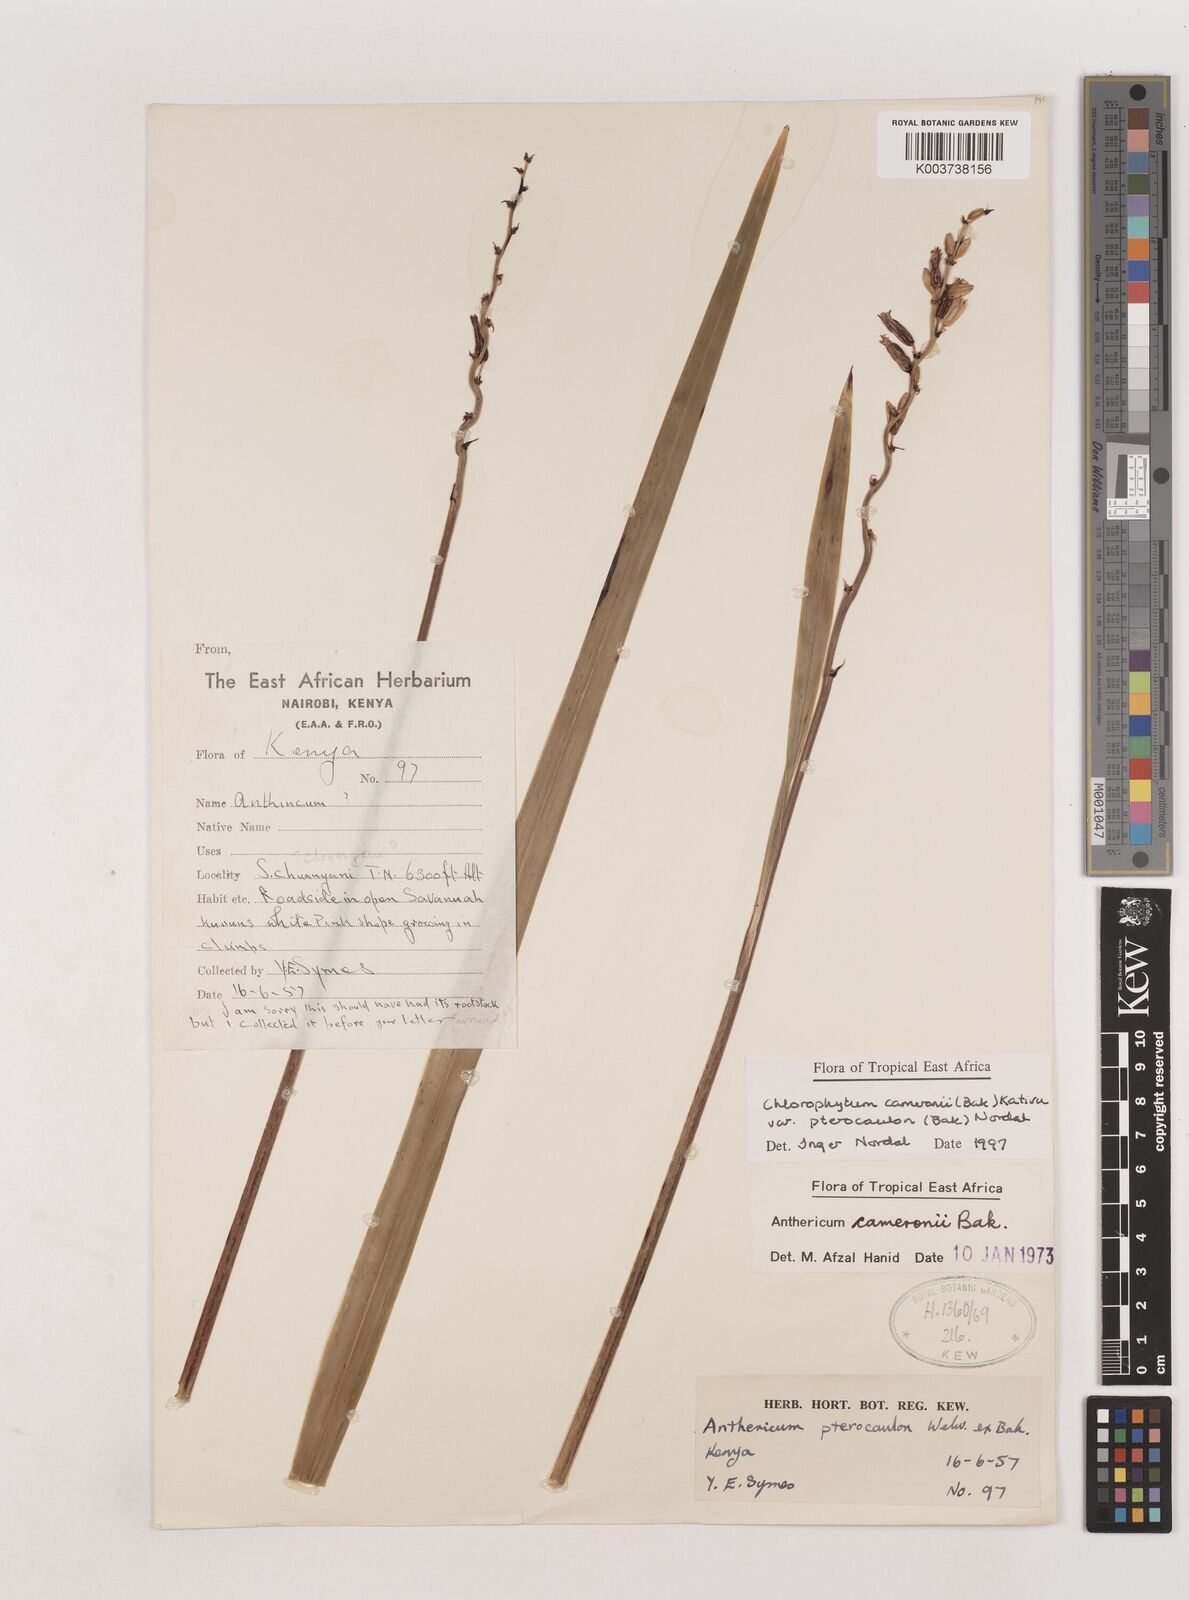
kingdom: Plantae
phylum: Tracheophyta
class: Liliopsida
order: Asparagales
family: Asparagaceae
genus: Chlorophytum
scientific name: Chlorophytum cameronii
